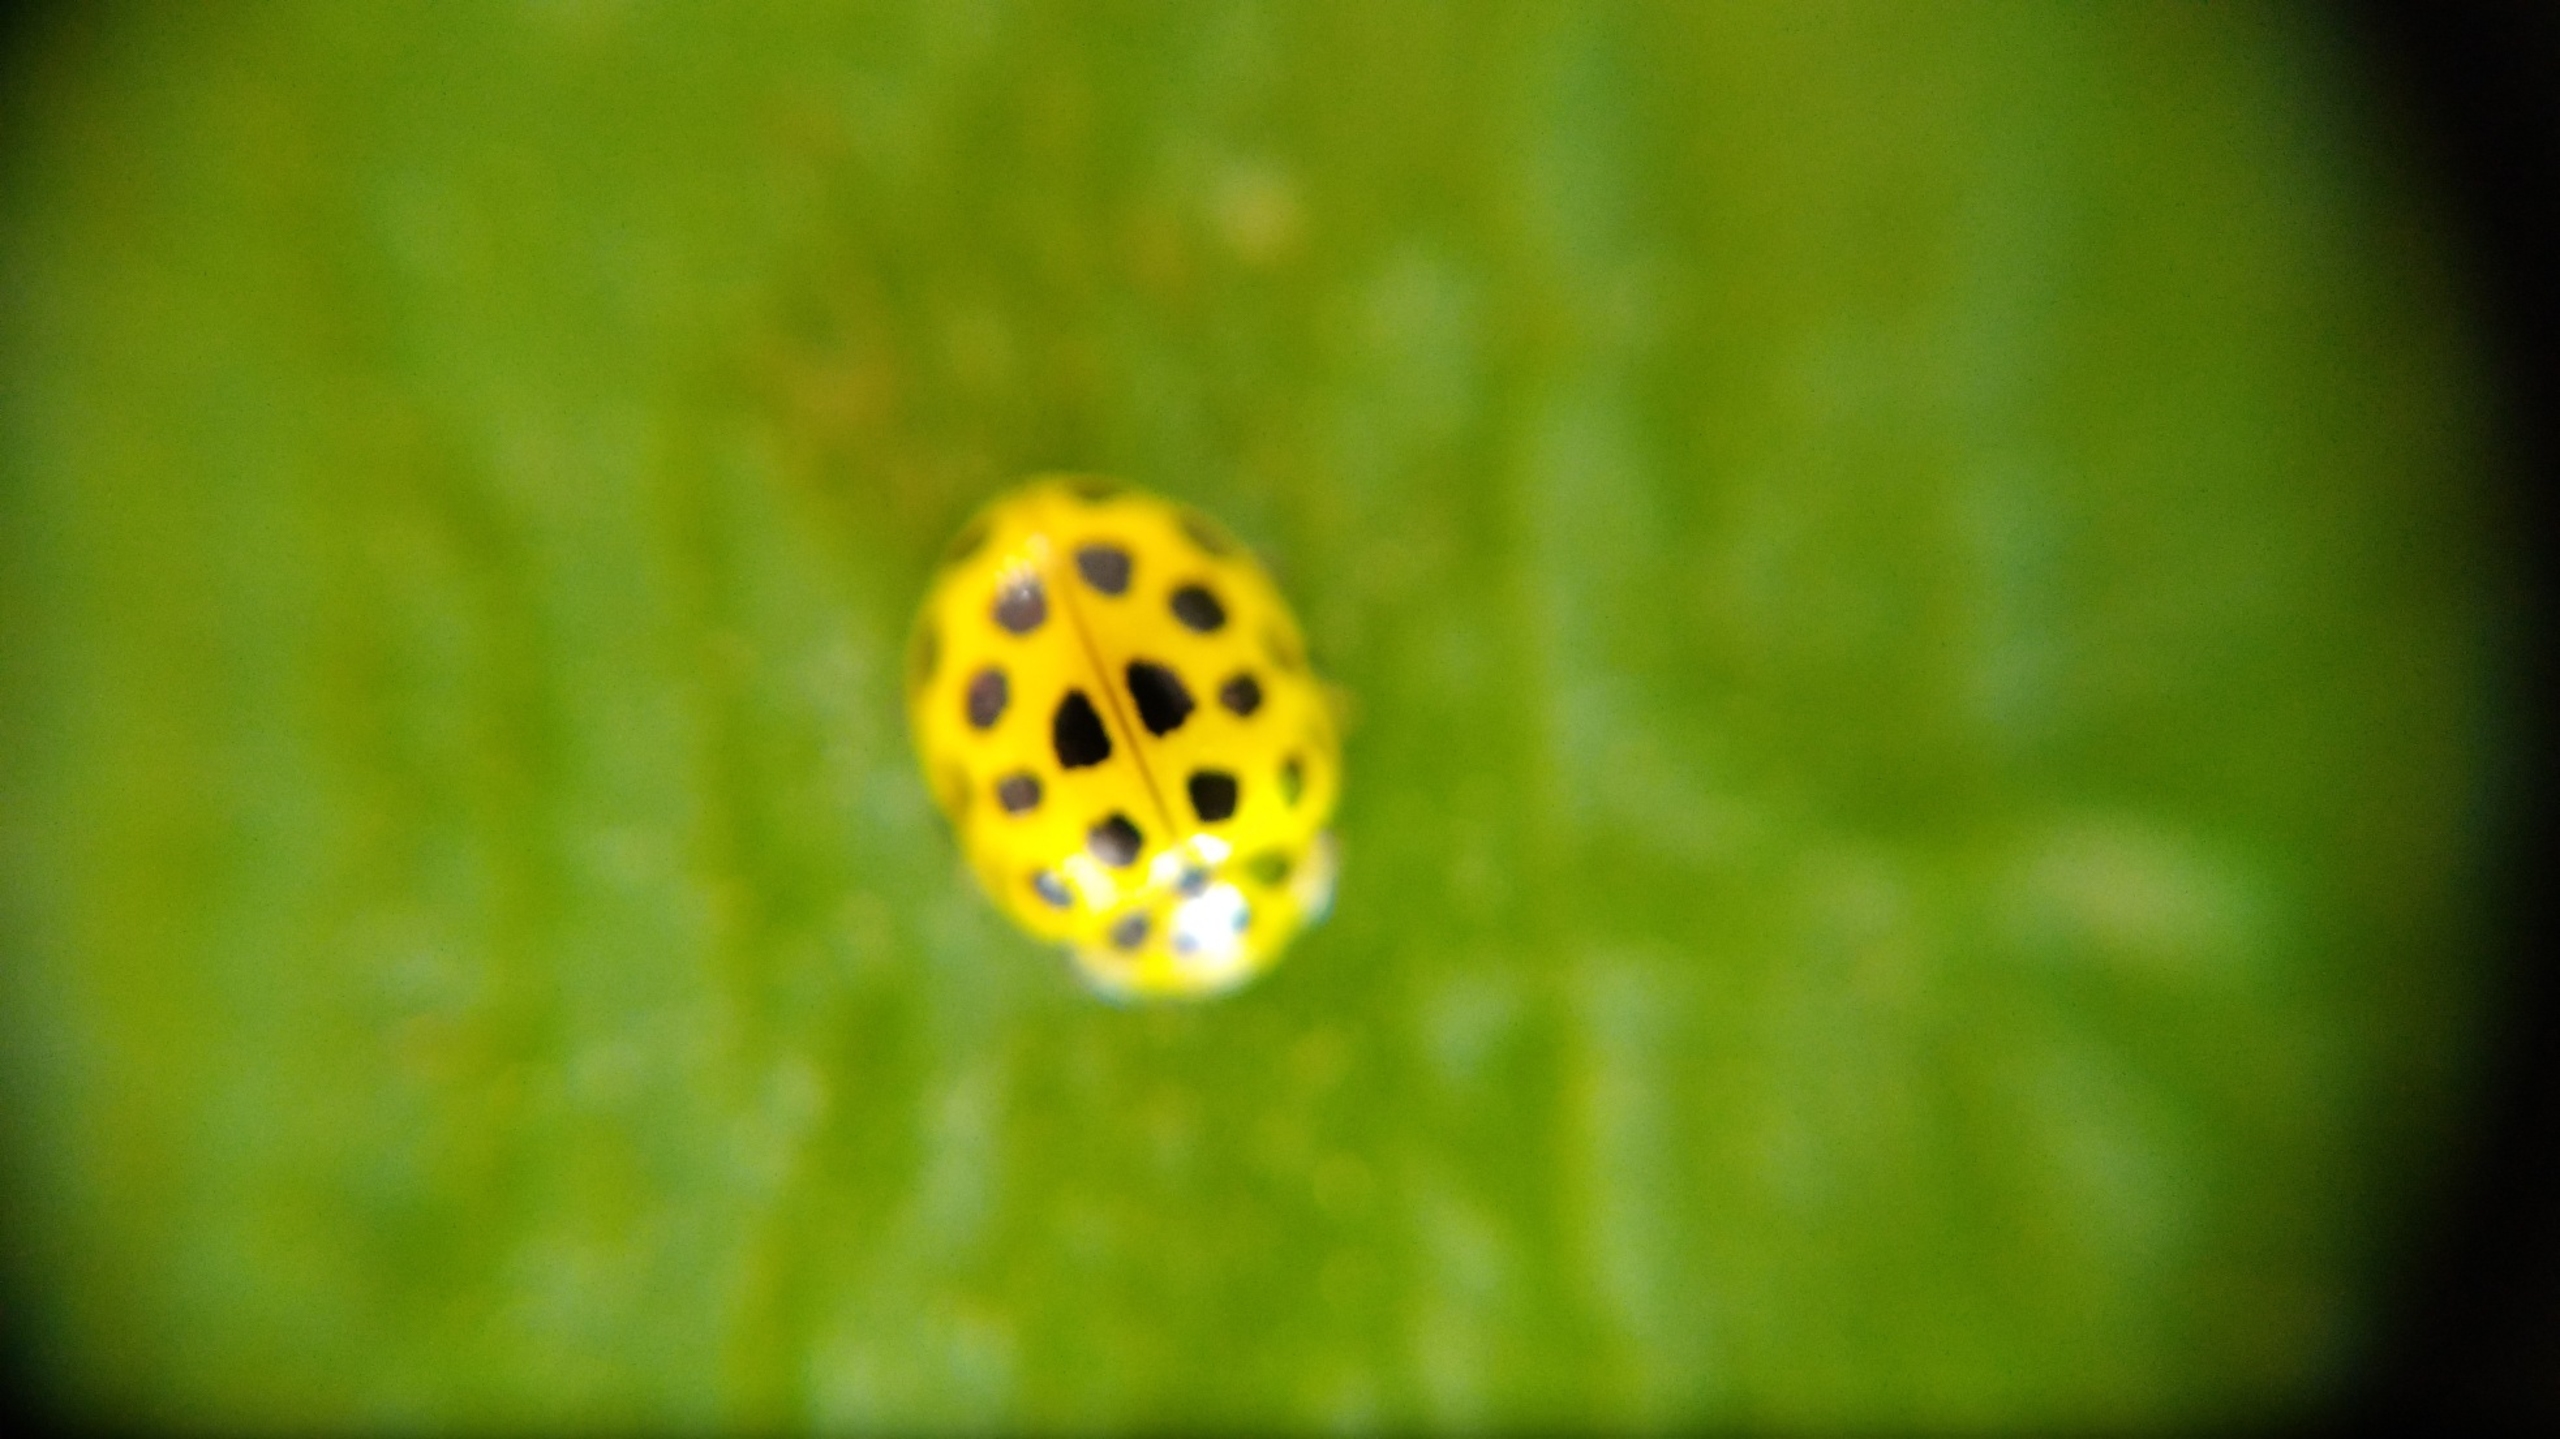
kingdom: Animalia
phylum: Arthropoda
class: Insecta
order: Coleoptera
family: Coccinellidae
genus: Psyllobora
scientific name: Psyllobora vigintiduopunctata
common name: Toogtyveplettet mariehøne
